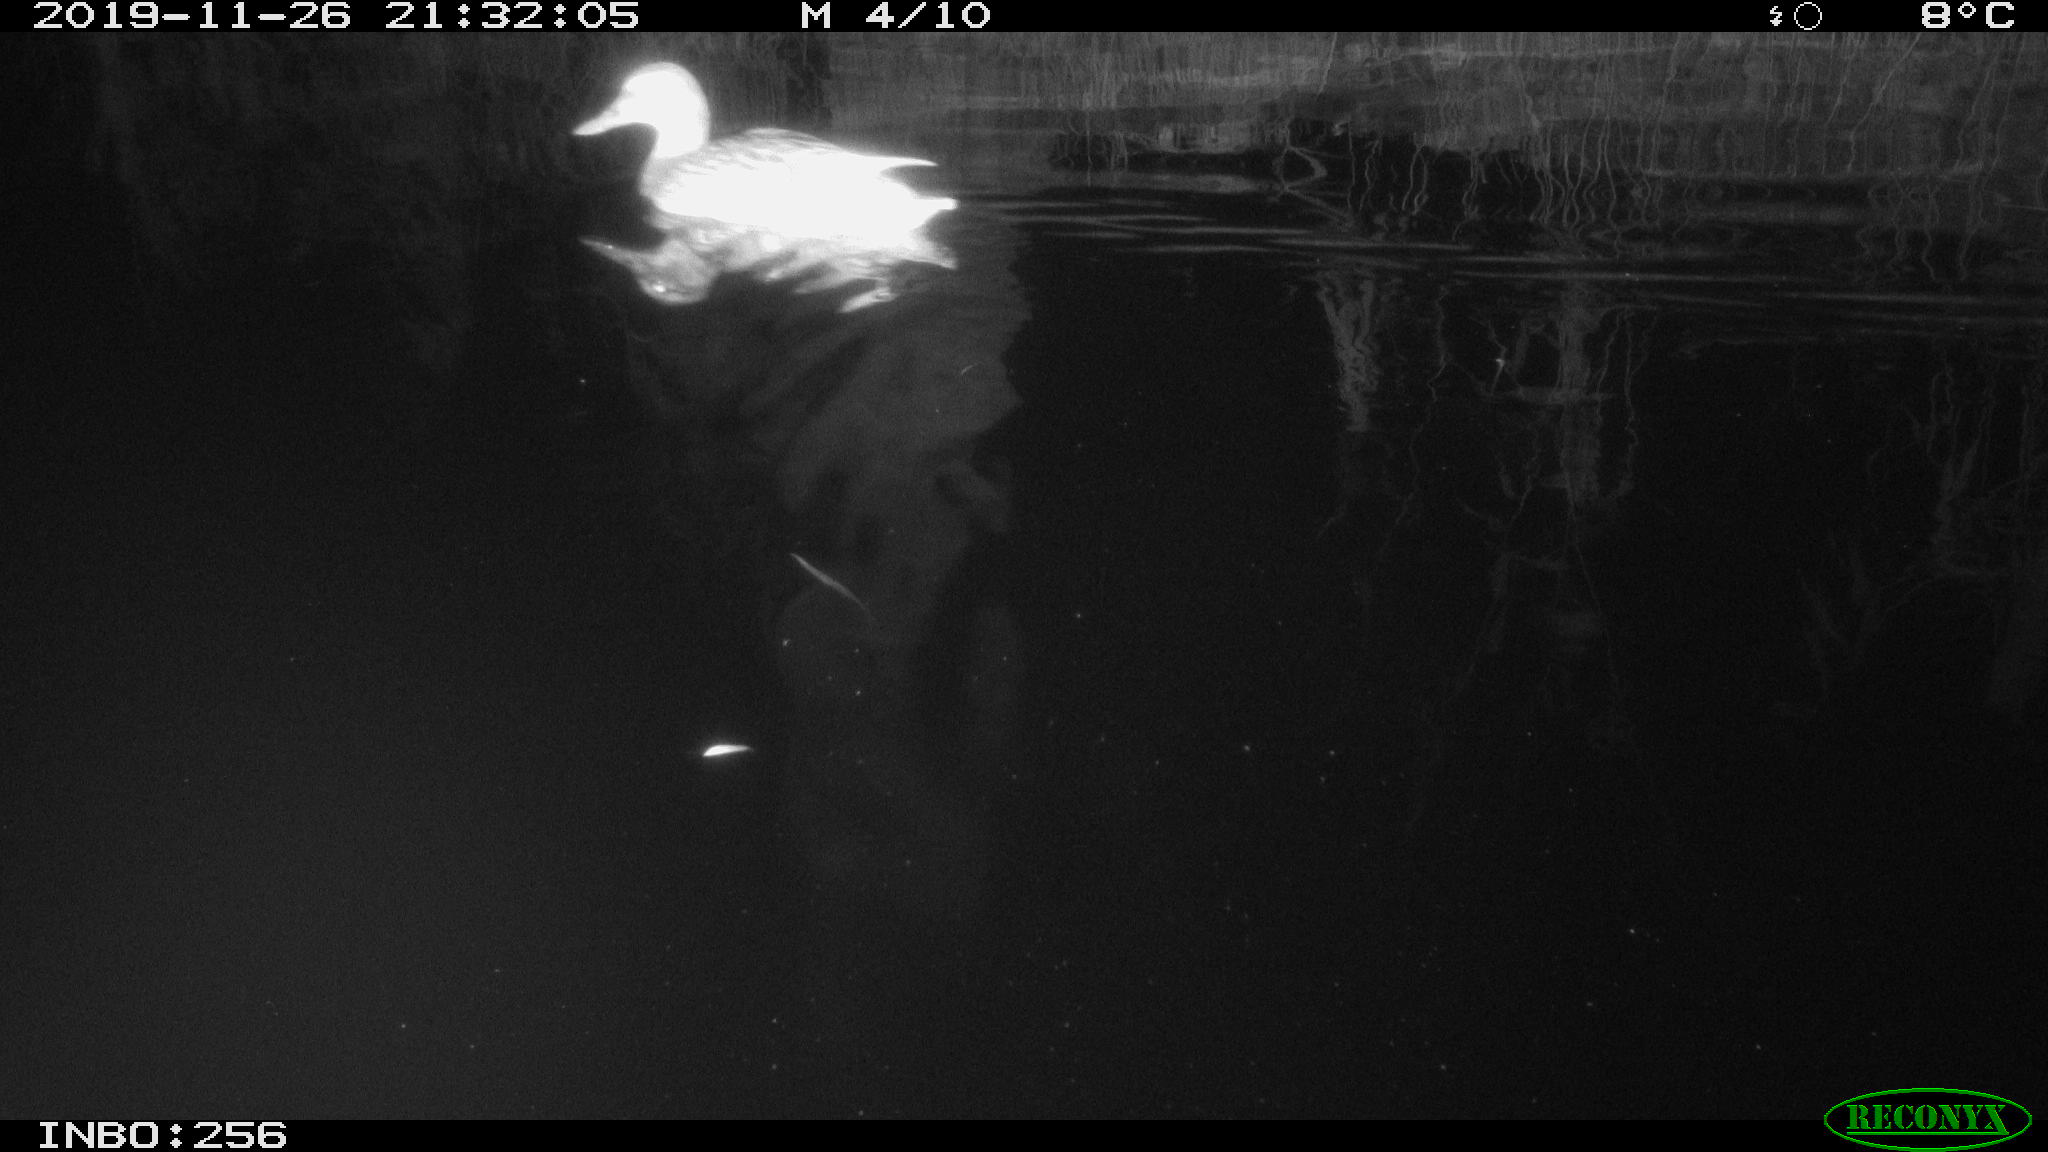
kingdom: Animalia
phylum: Chordata
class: Aves
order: Anseriformes
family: Anatidae
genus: Anas
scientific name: Anas platyrhynchos
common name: Mallard
